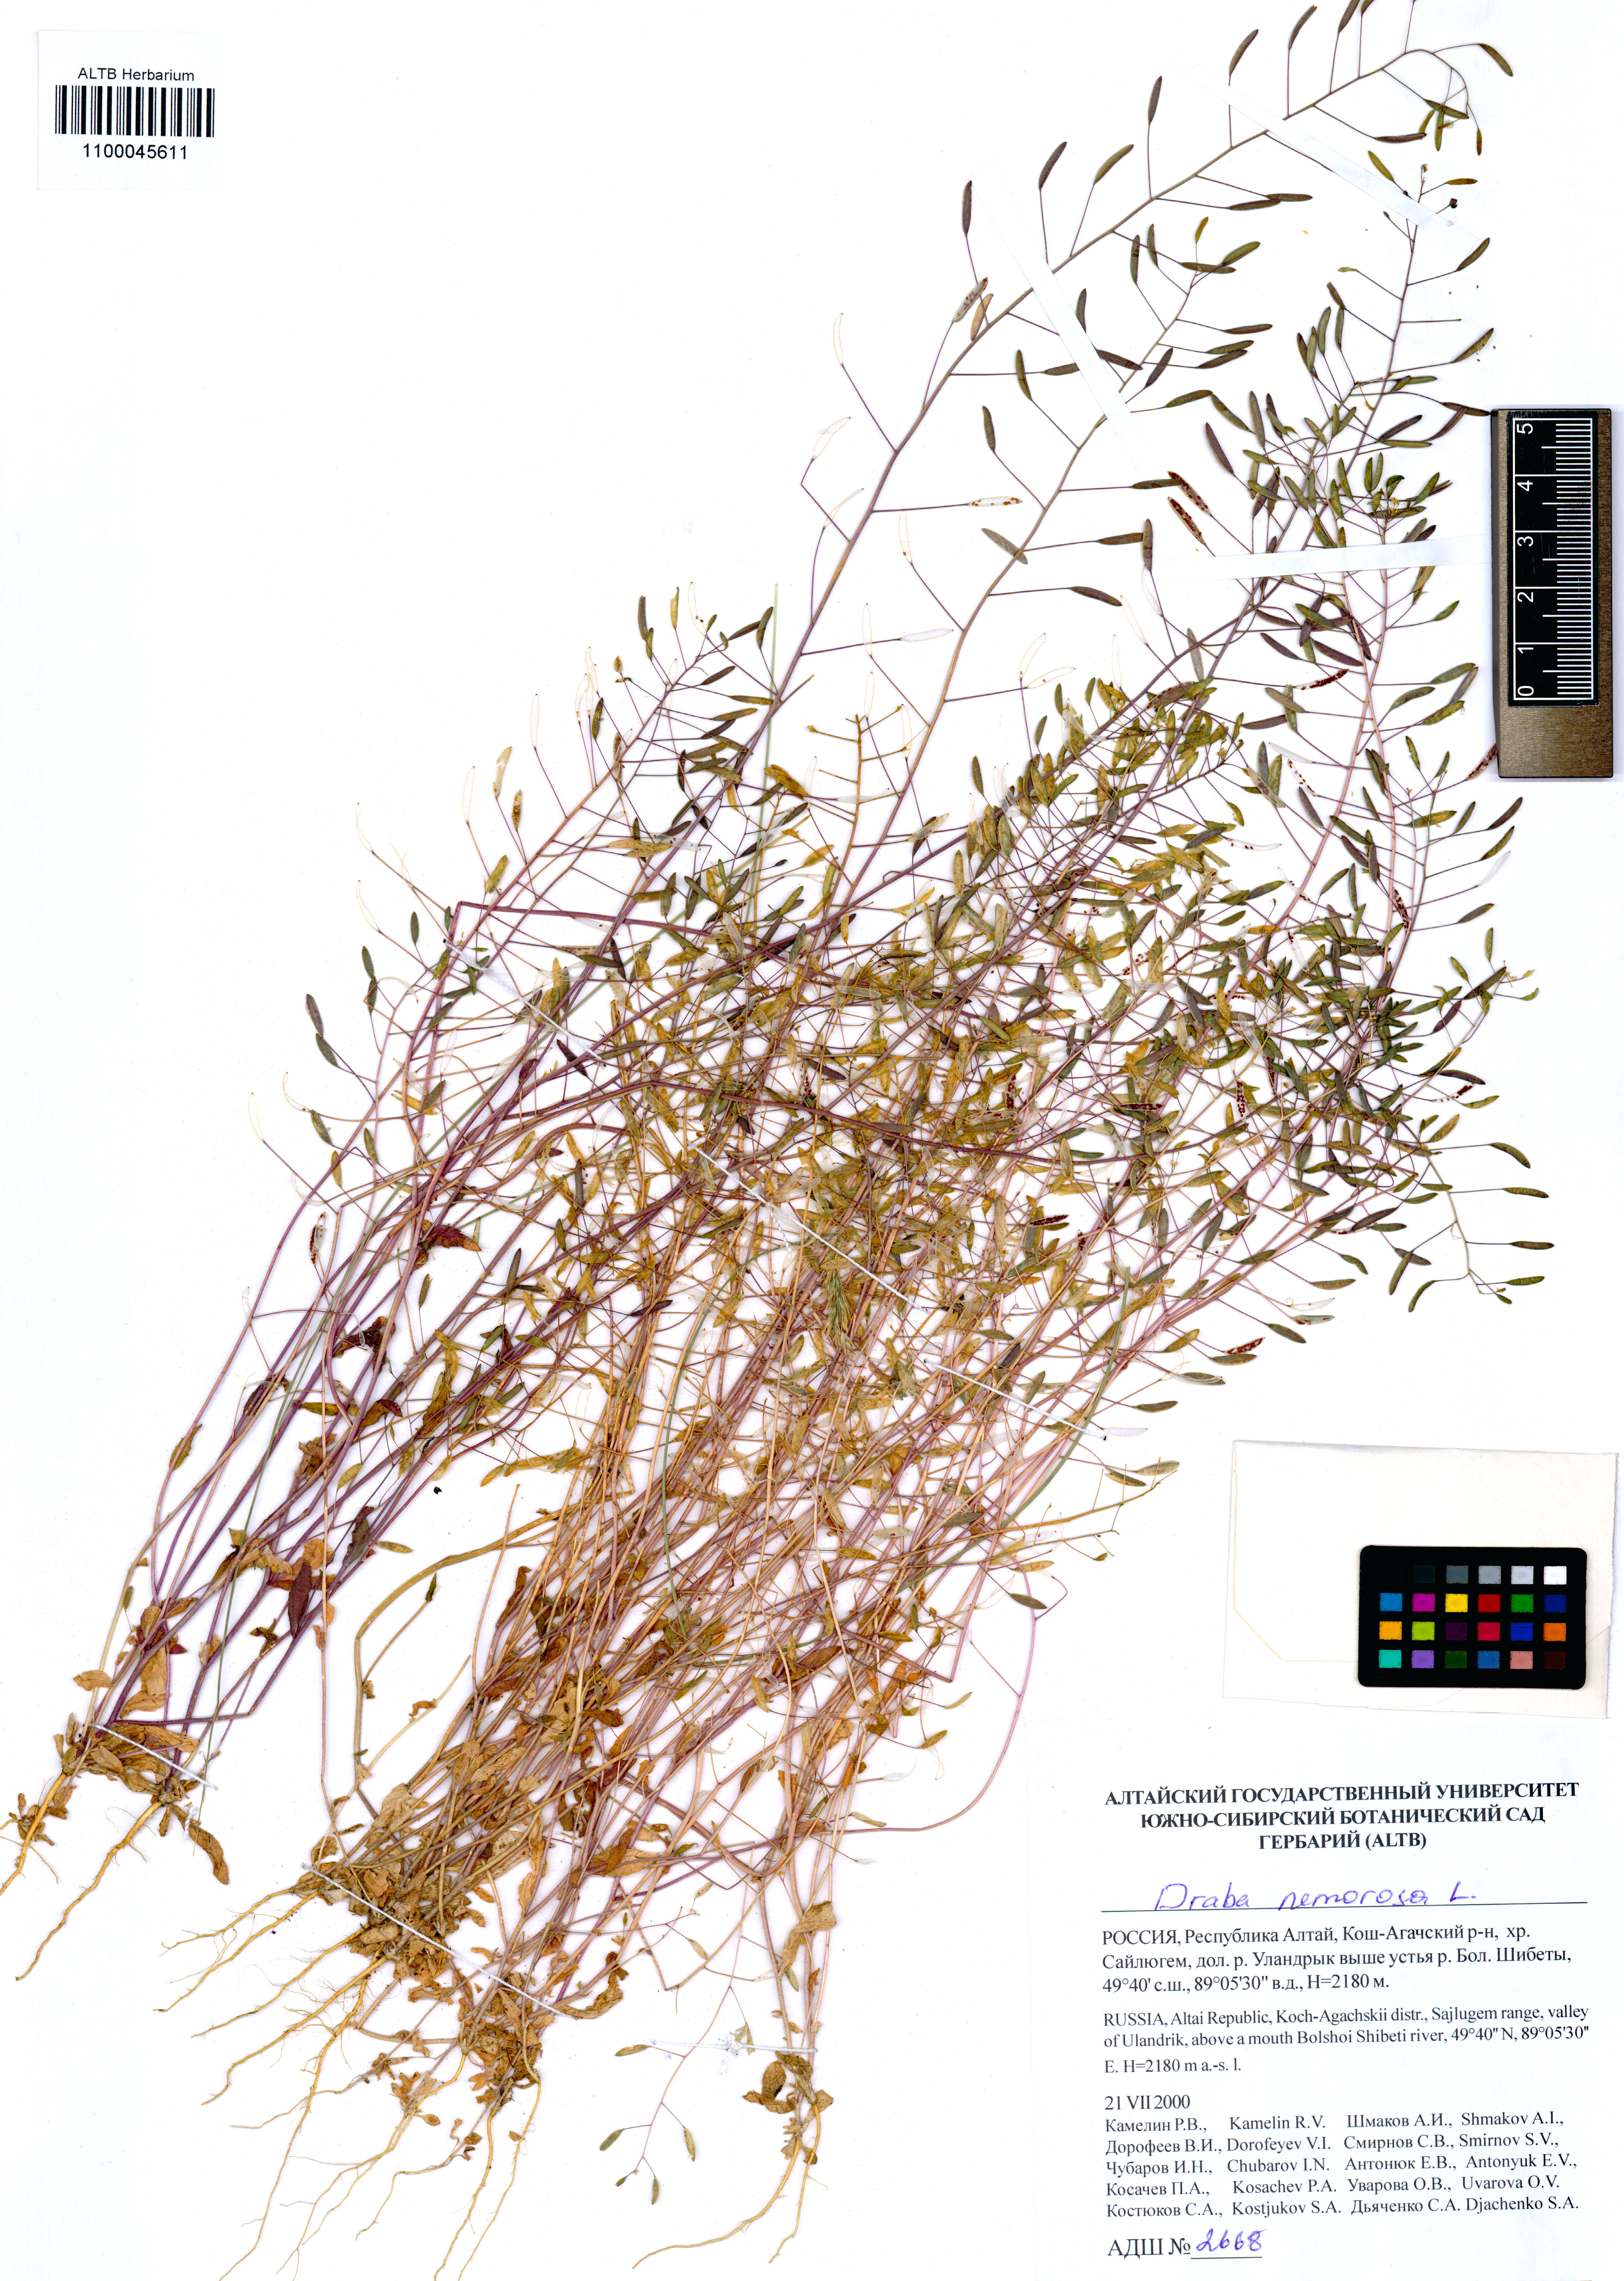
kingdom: Plantae
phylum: Tracheophyta
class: Magnoliopsida
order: Brassicales
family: Brassicaceae
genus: Draba
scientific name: Draba nemorosa
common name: Wood whitlow-grass
